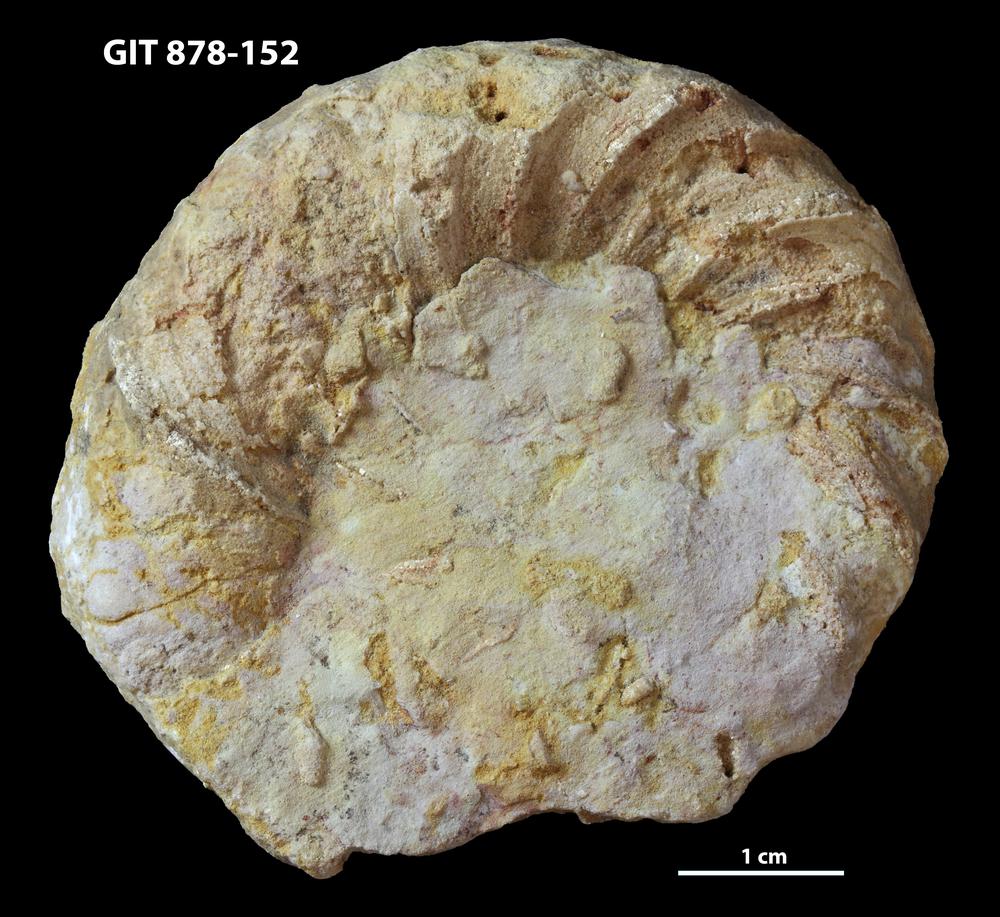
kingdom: Animalia
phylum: Mollusca
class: Cephalopoda
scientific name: Cephalopoda
